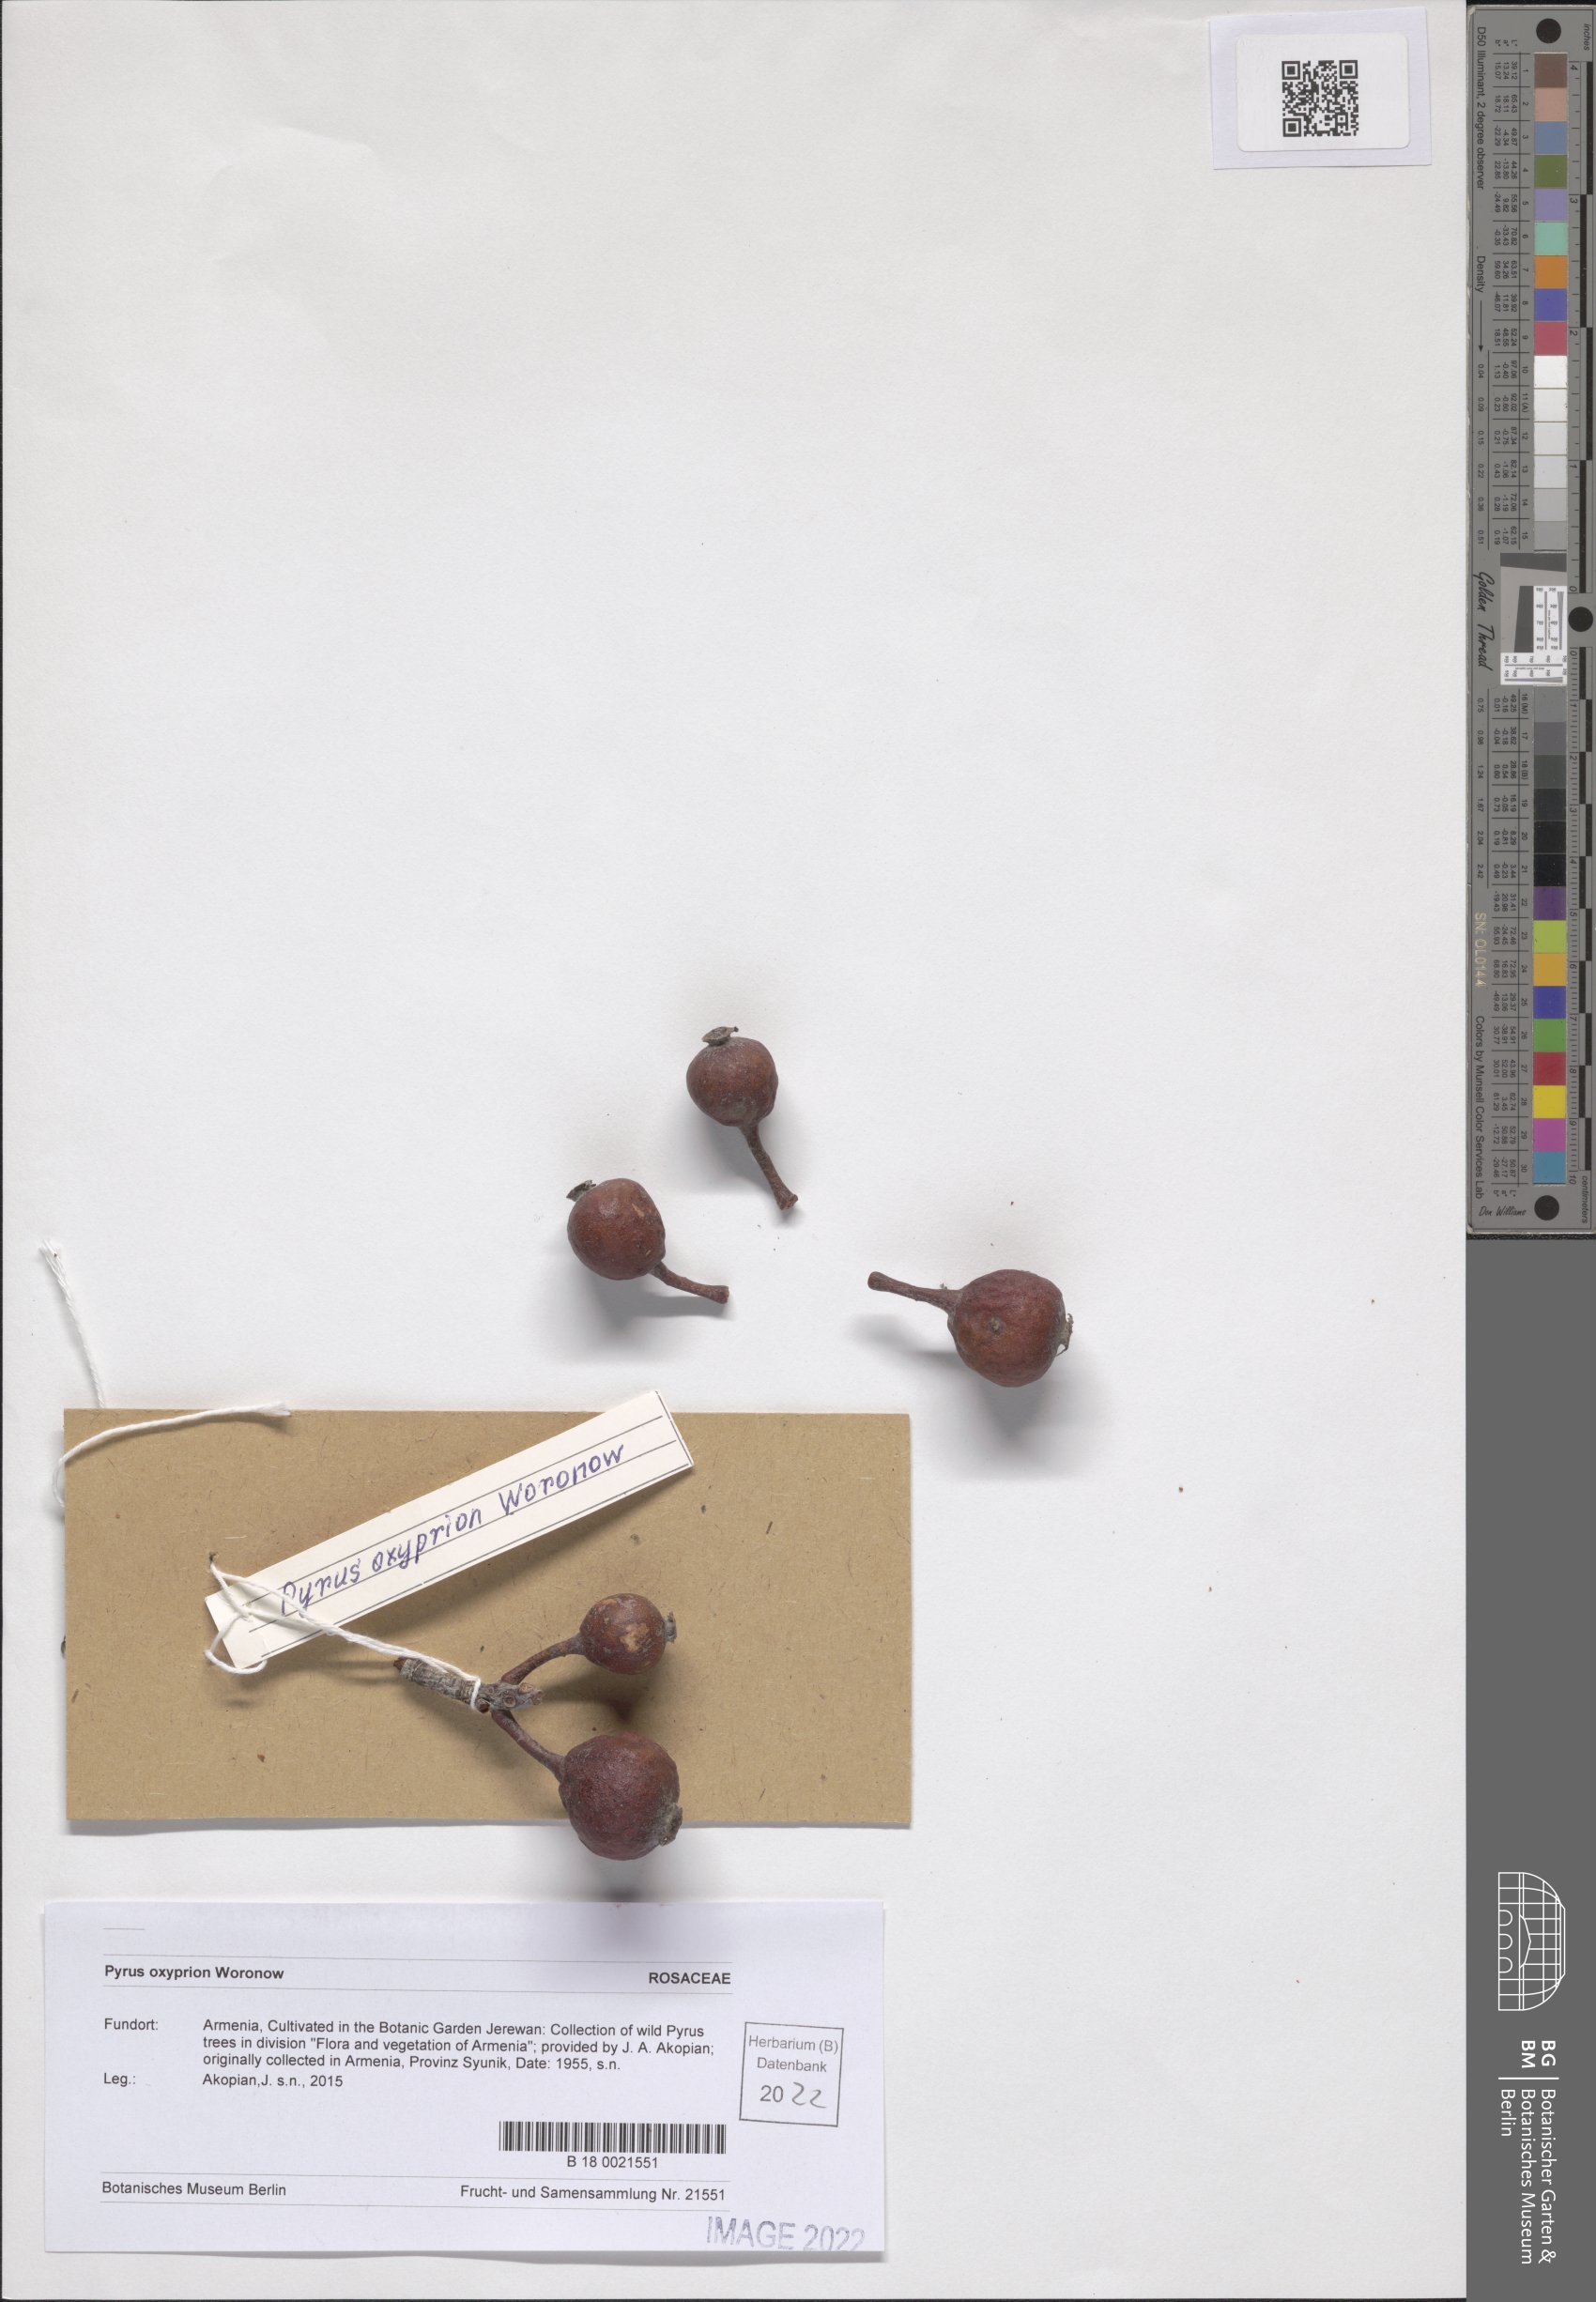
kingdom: Plantae
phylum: Tracheophyta
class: Magnoliopsida
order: Rosales
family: Rosaceae
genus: Pyrus
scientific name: Pyrus oxyprion
